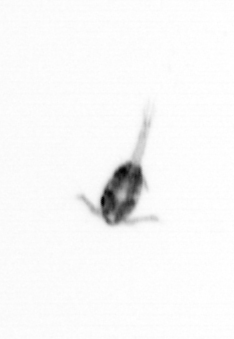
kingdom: Animalia
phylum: Arthropoda
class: Copepoda
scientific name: Copepoda
